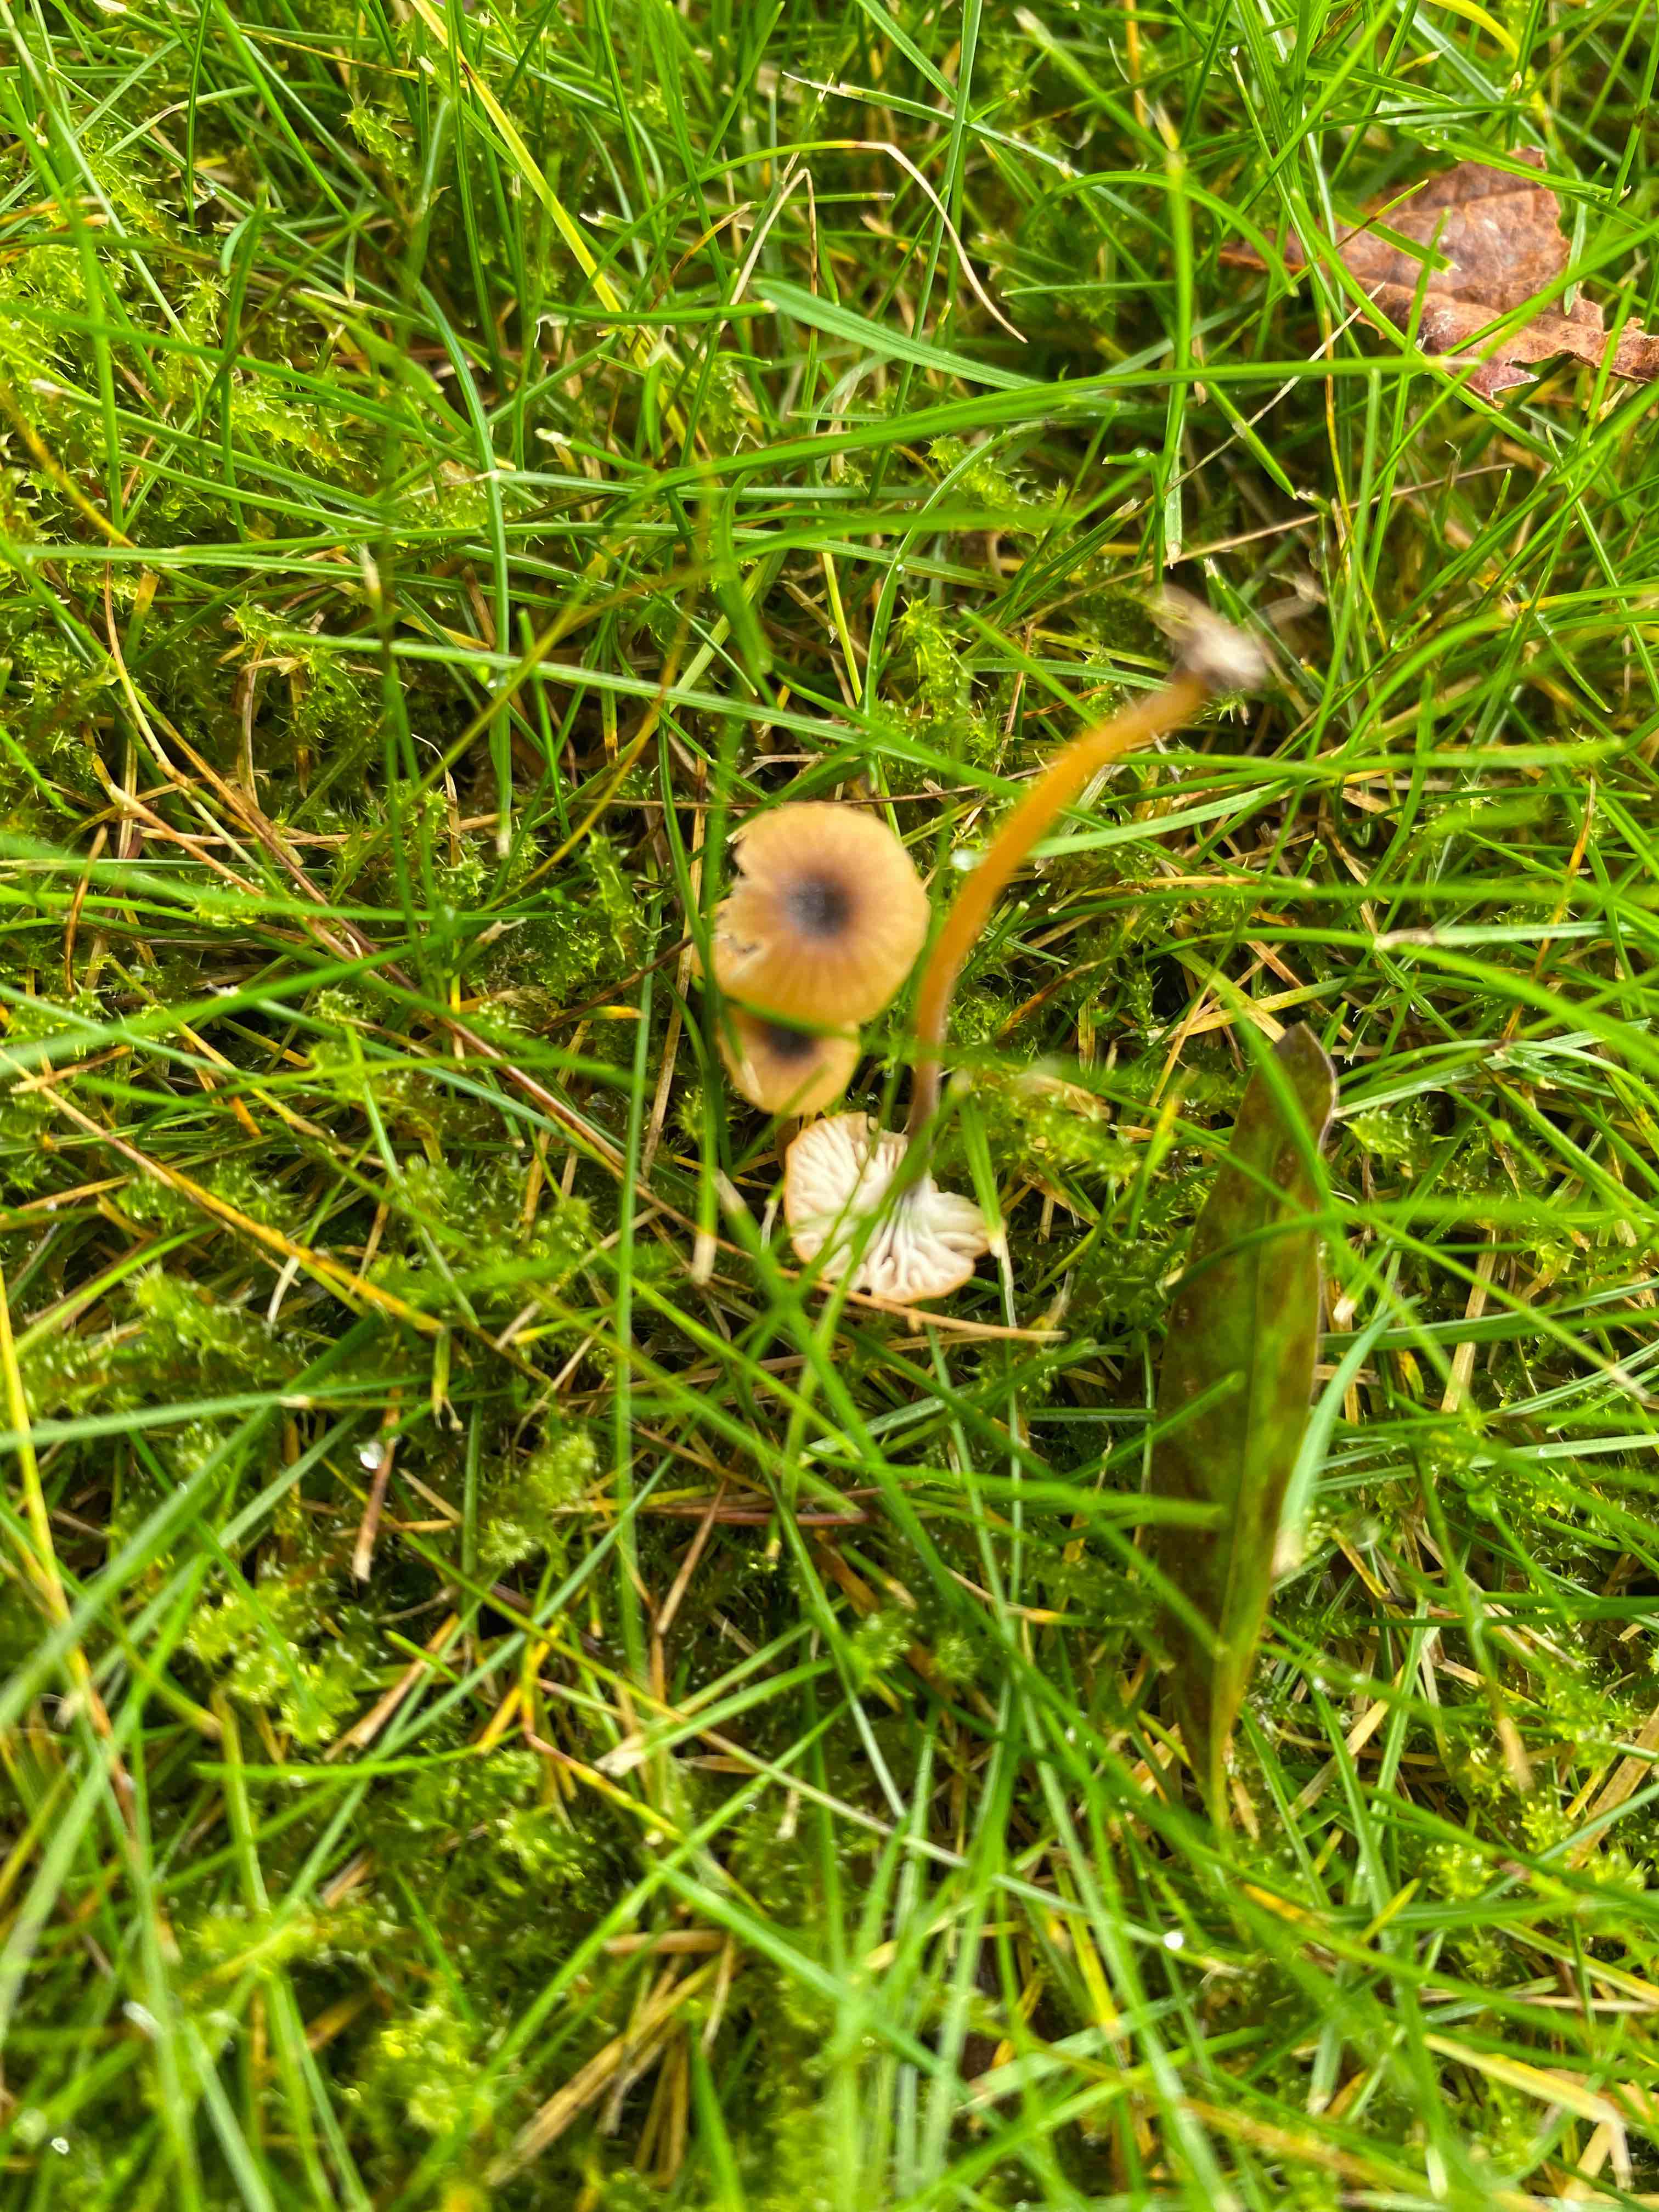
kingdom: Fungi
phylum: Basidiomycota
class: Agaricomycetes
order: Hymenochaetales
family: Rickenellaceae
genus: Rickenella
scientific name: Rickenella swartzii
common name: finstokket mosnavlehat
